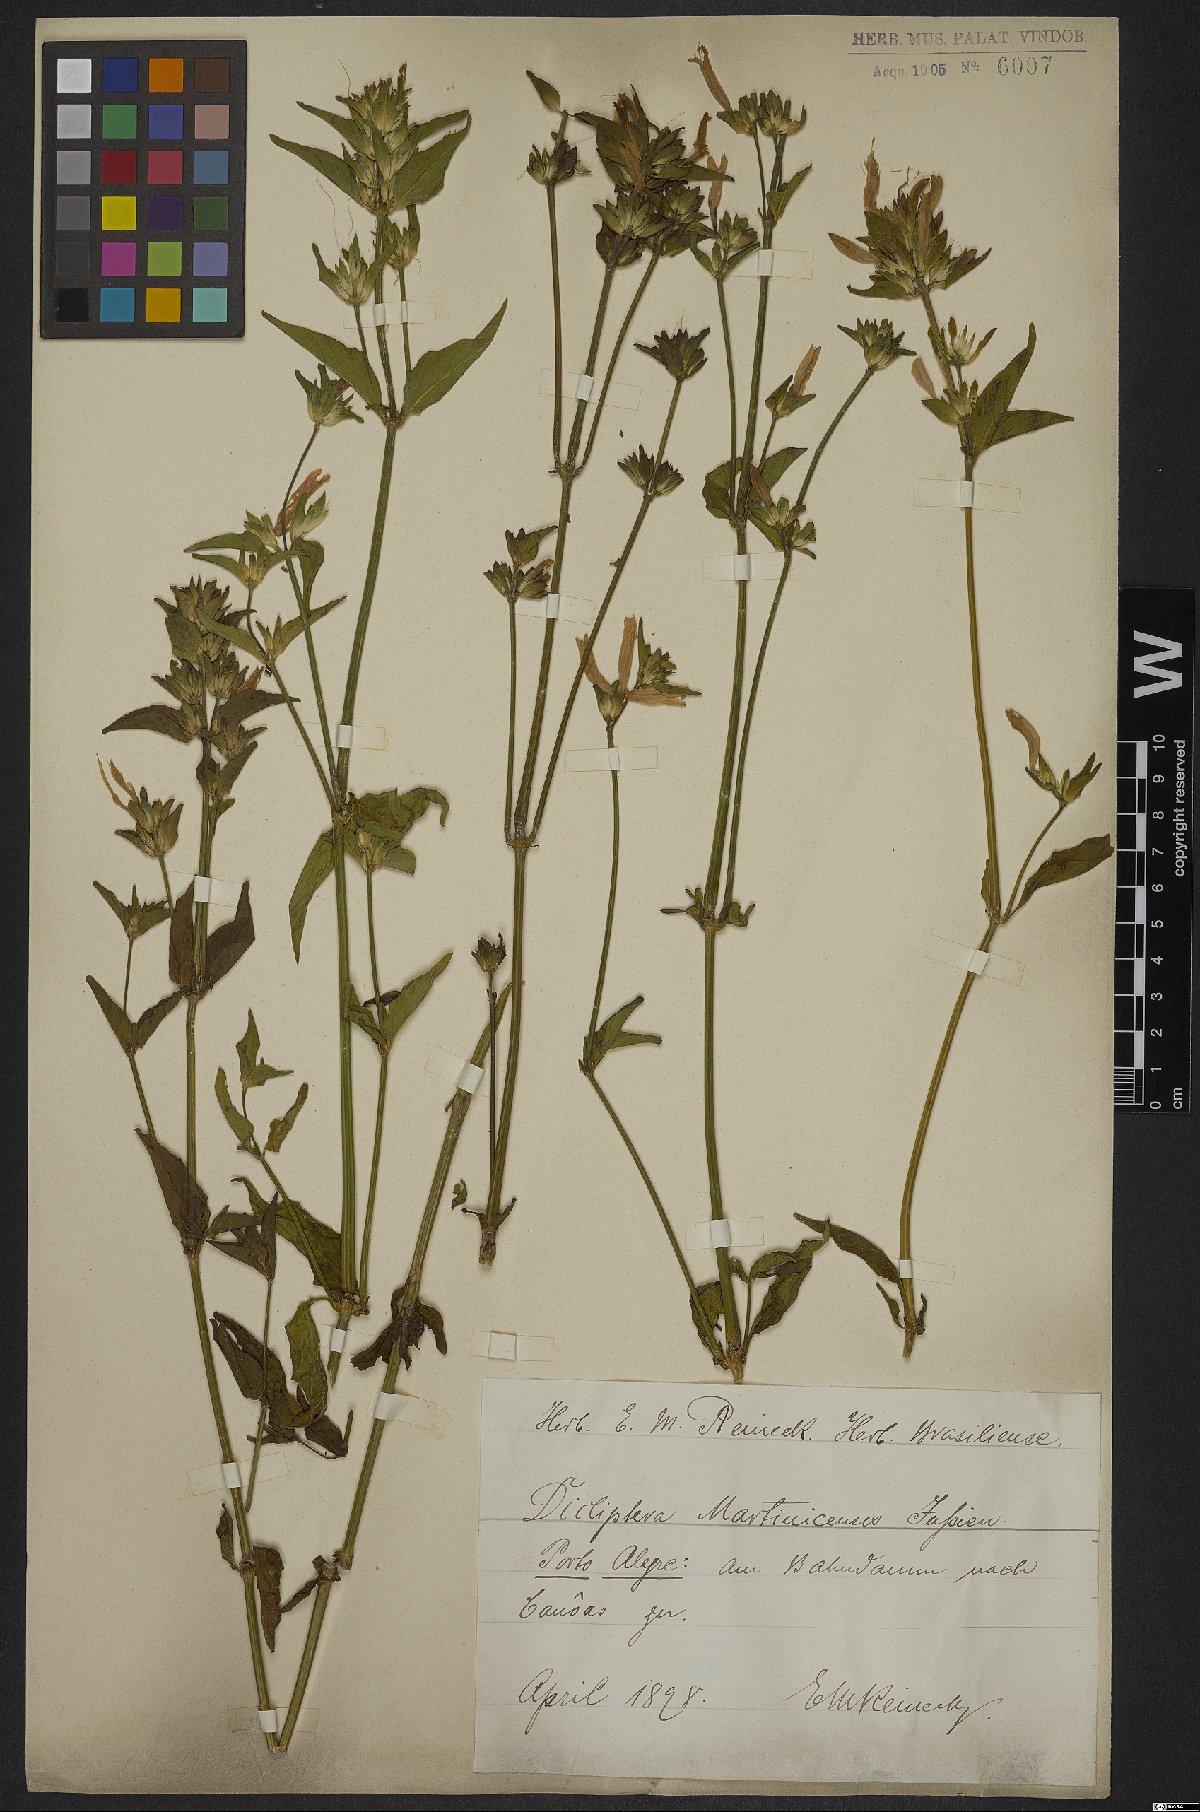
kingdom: Plantae
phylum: Tracheophyta
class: Magnoliopsida
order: Lamiales
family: Acanthaceae
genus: Dicliptera
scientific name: Dicliptera martinicensis
